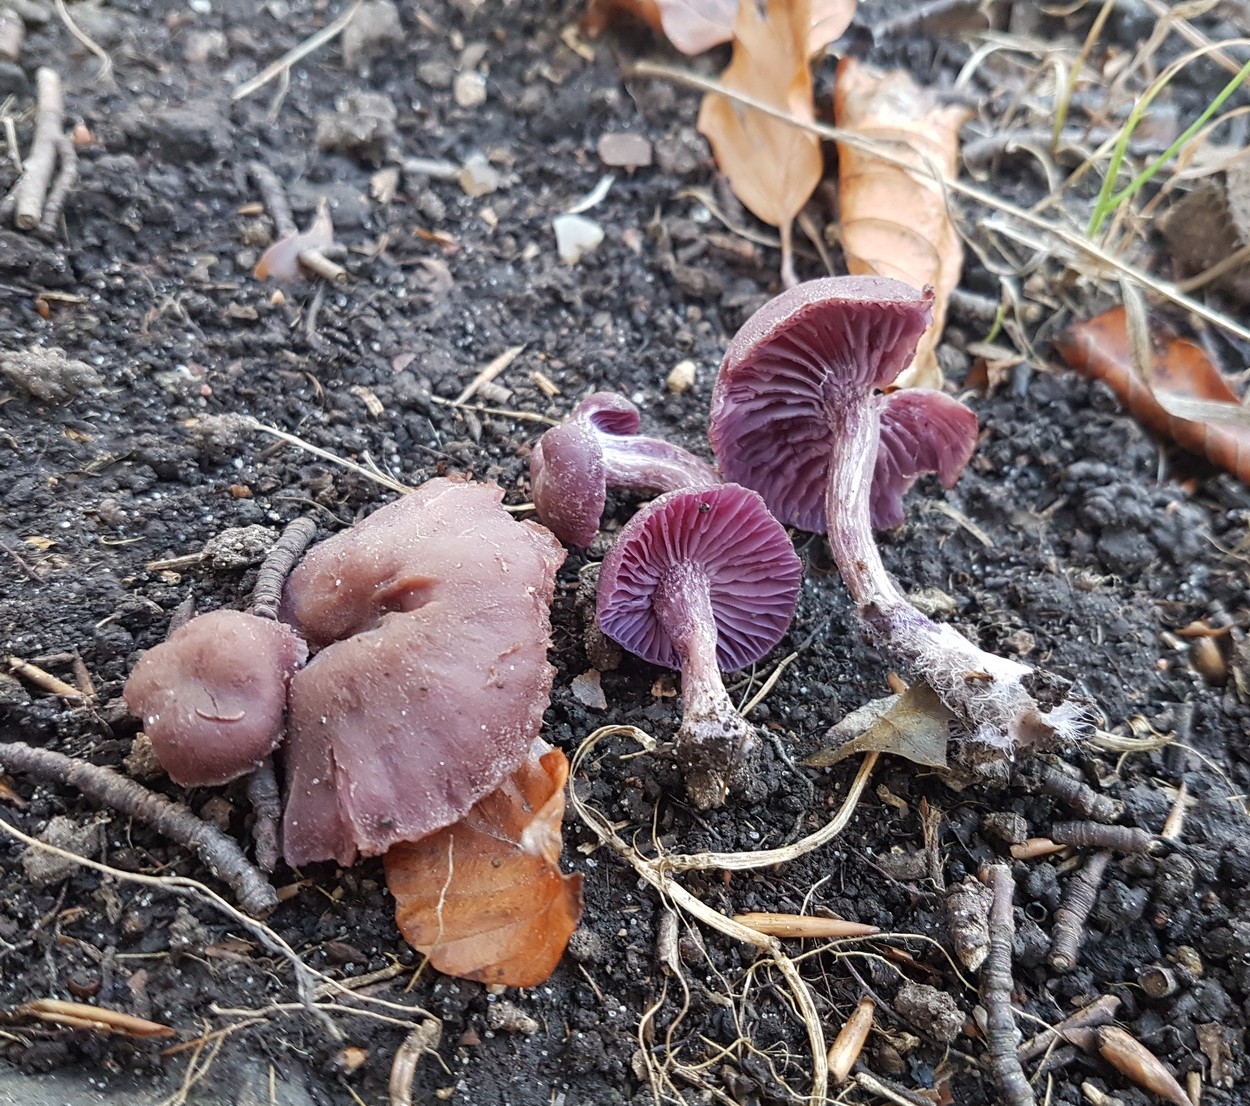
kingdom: Fungi
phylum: Basidiomycota
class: Agaricomycetes
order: Agaricales
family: Hydnangiaceae
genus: Laccaria
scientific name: Laccaria amethystina
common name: violet ametysthat
